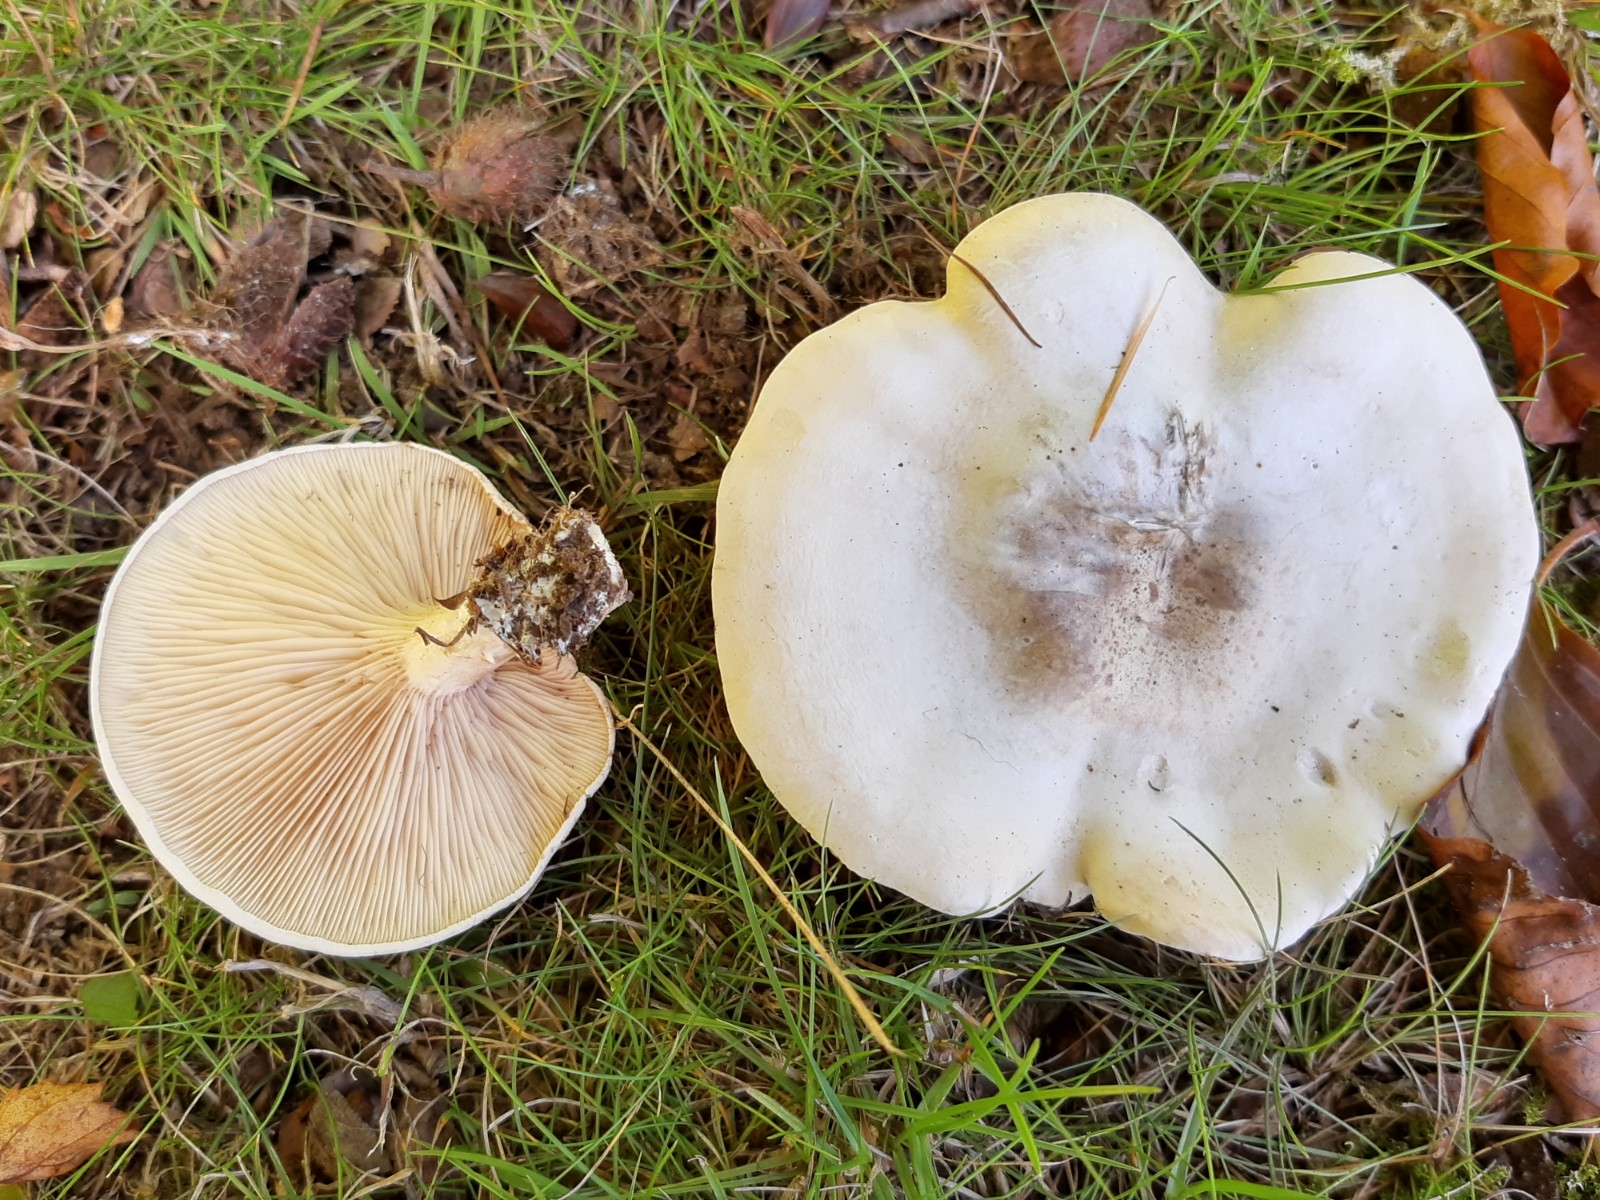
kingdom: Fungi
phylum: Basidiomycota
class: Agaricomycetes
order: Agaricales
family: Entolomataceae
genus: Clitopilus
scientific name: Clitopilus prunulus
